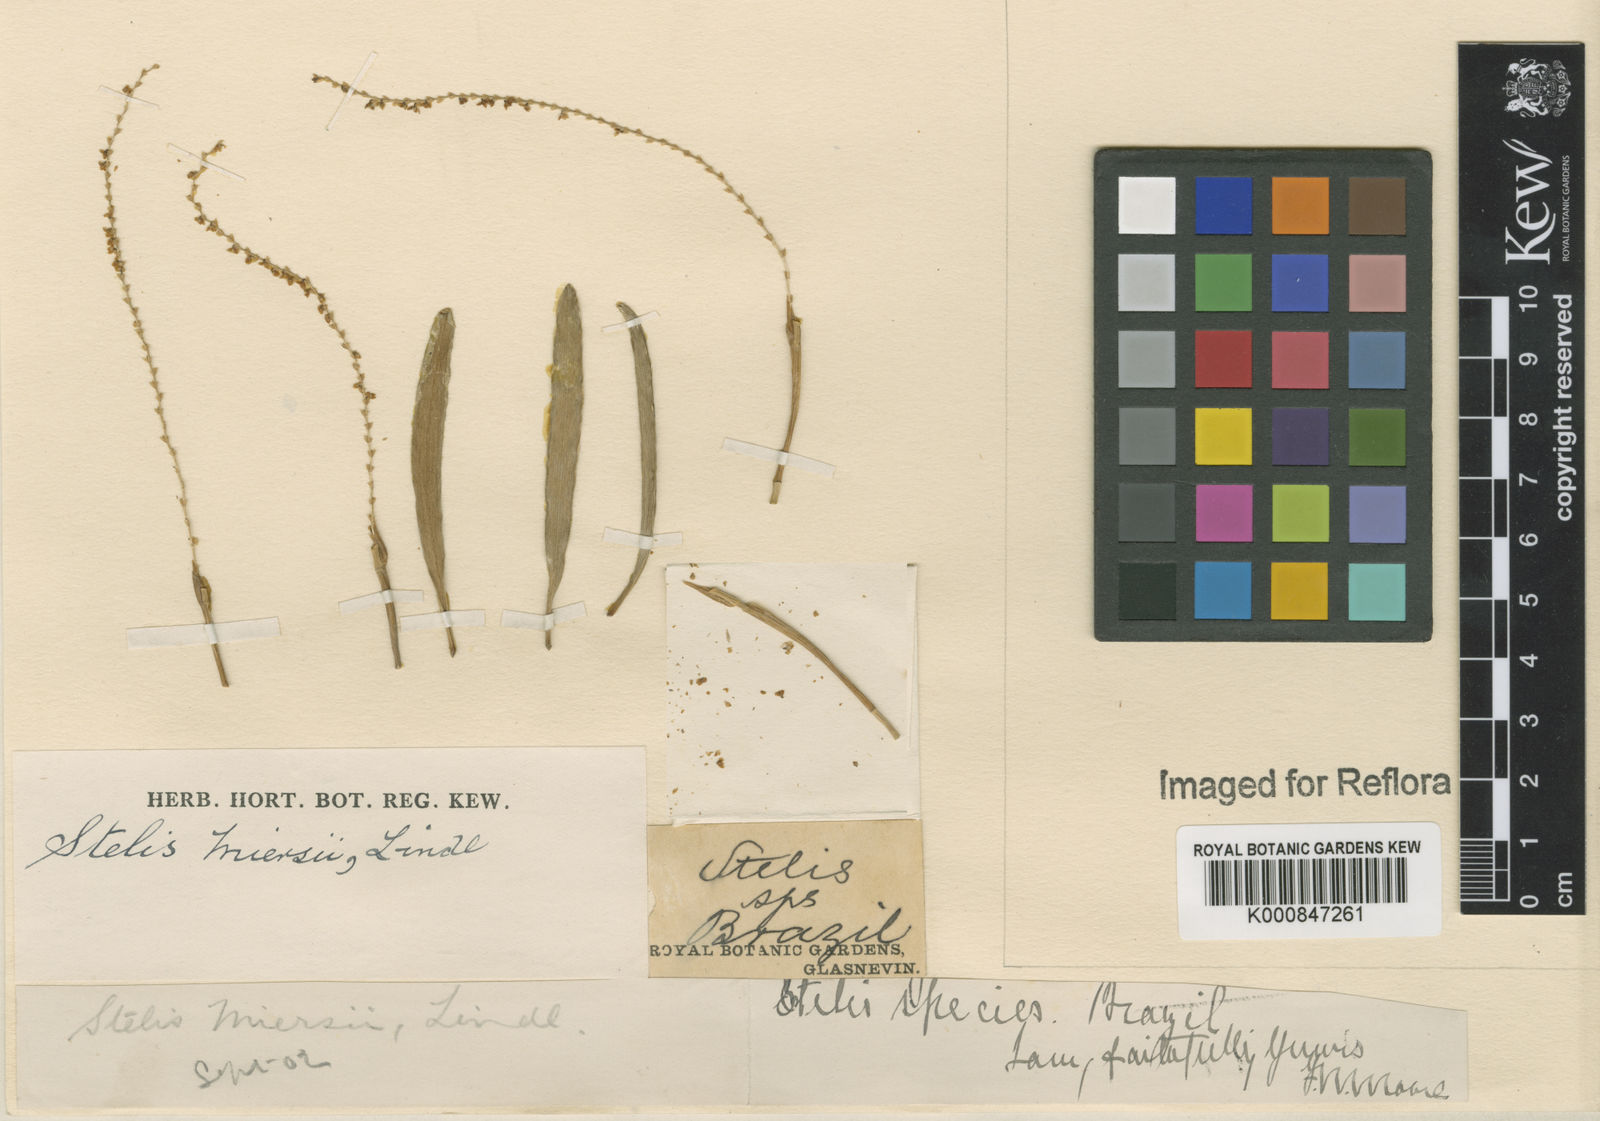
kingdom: Plantae
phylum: Tracheophyta
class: Liliopsida
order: Asparagales
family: Orchidaceae
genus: Stelis
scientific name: Stelis aprica
